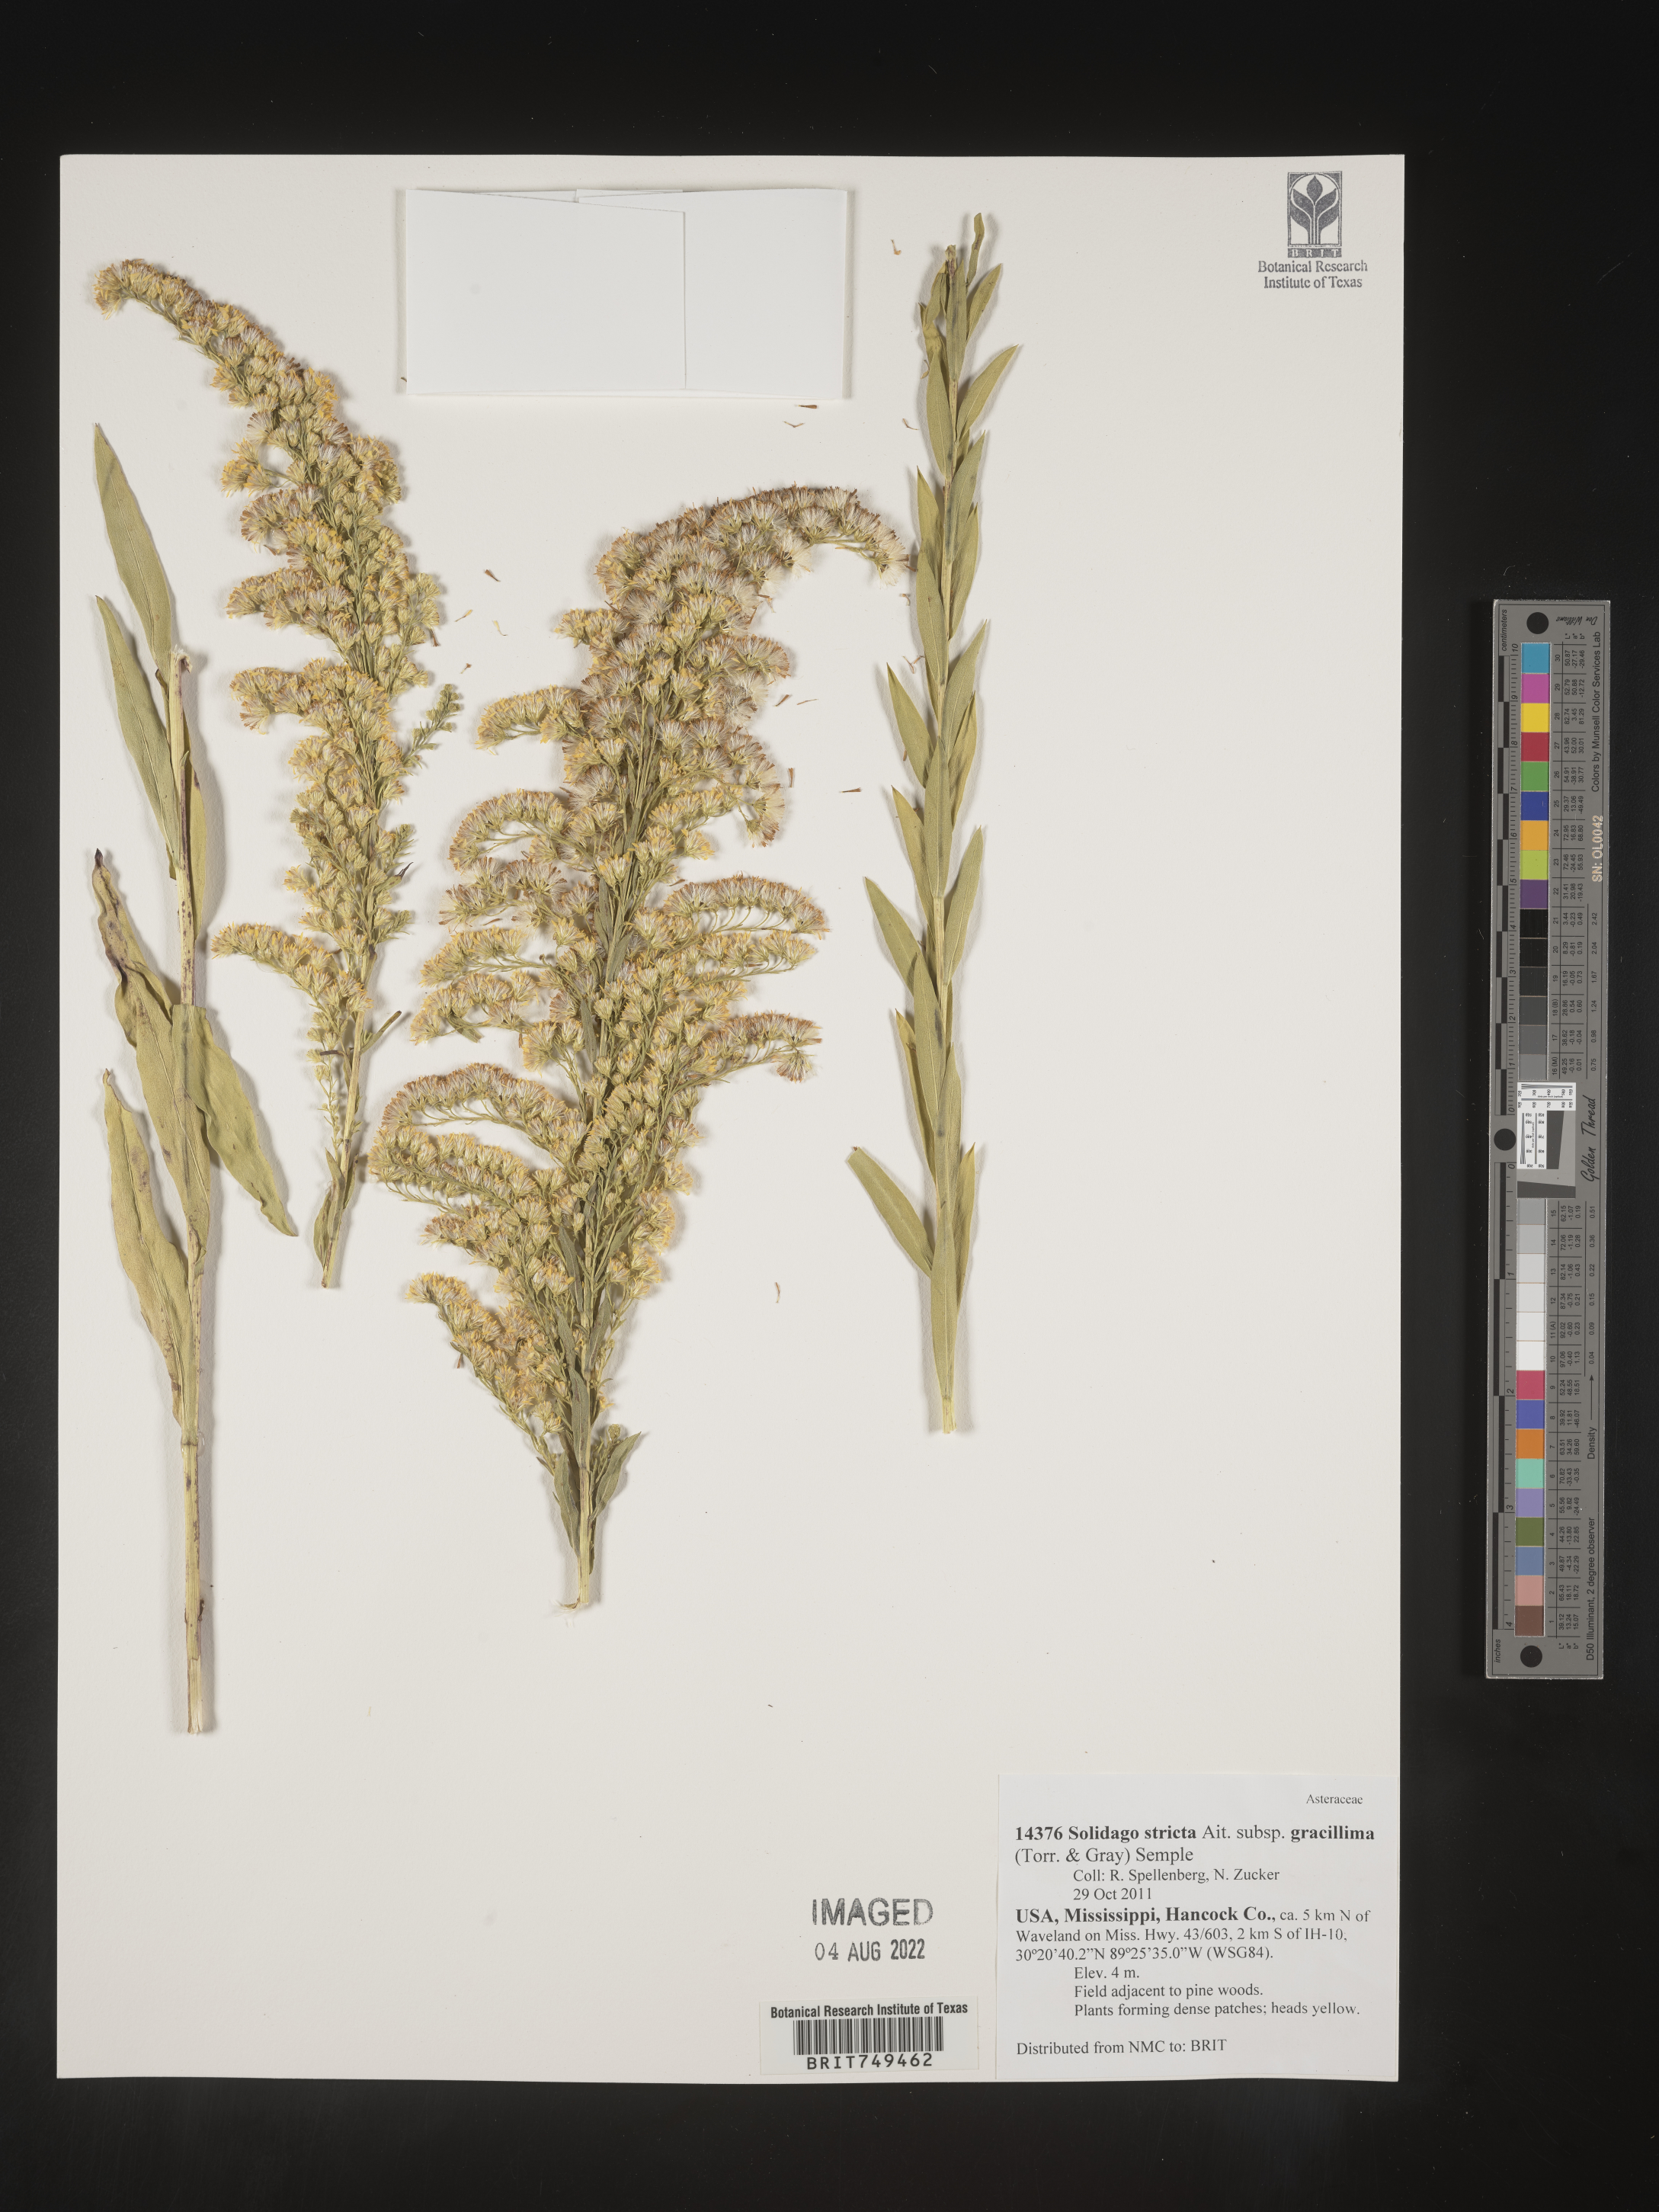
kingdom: Plantae
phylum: Tracheophyta
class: Magnoliopsida
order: Asterales
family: Asteraceae
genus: Solidago
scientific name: Solidago stricta
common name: Pine barren bog goldenrod
